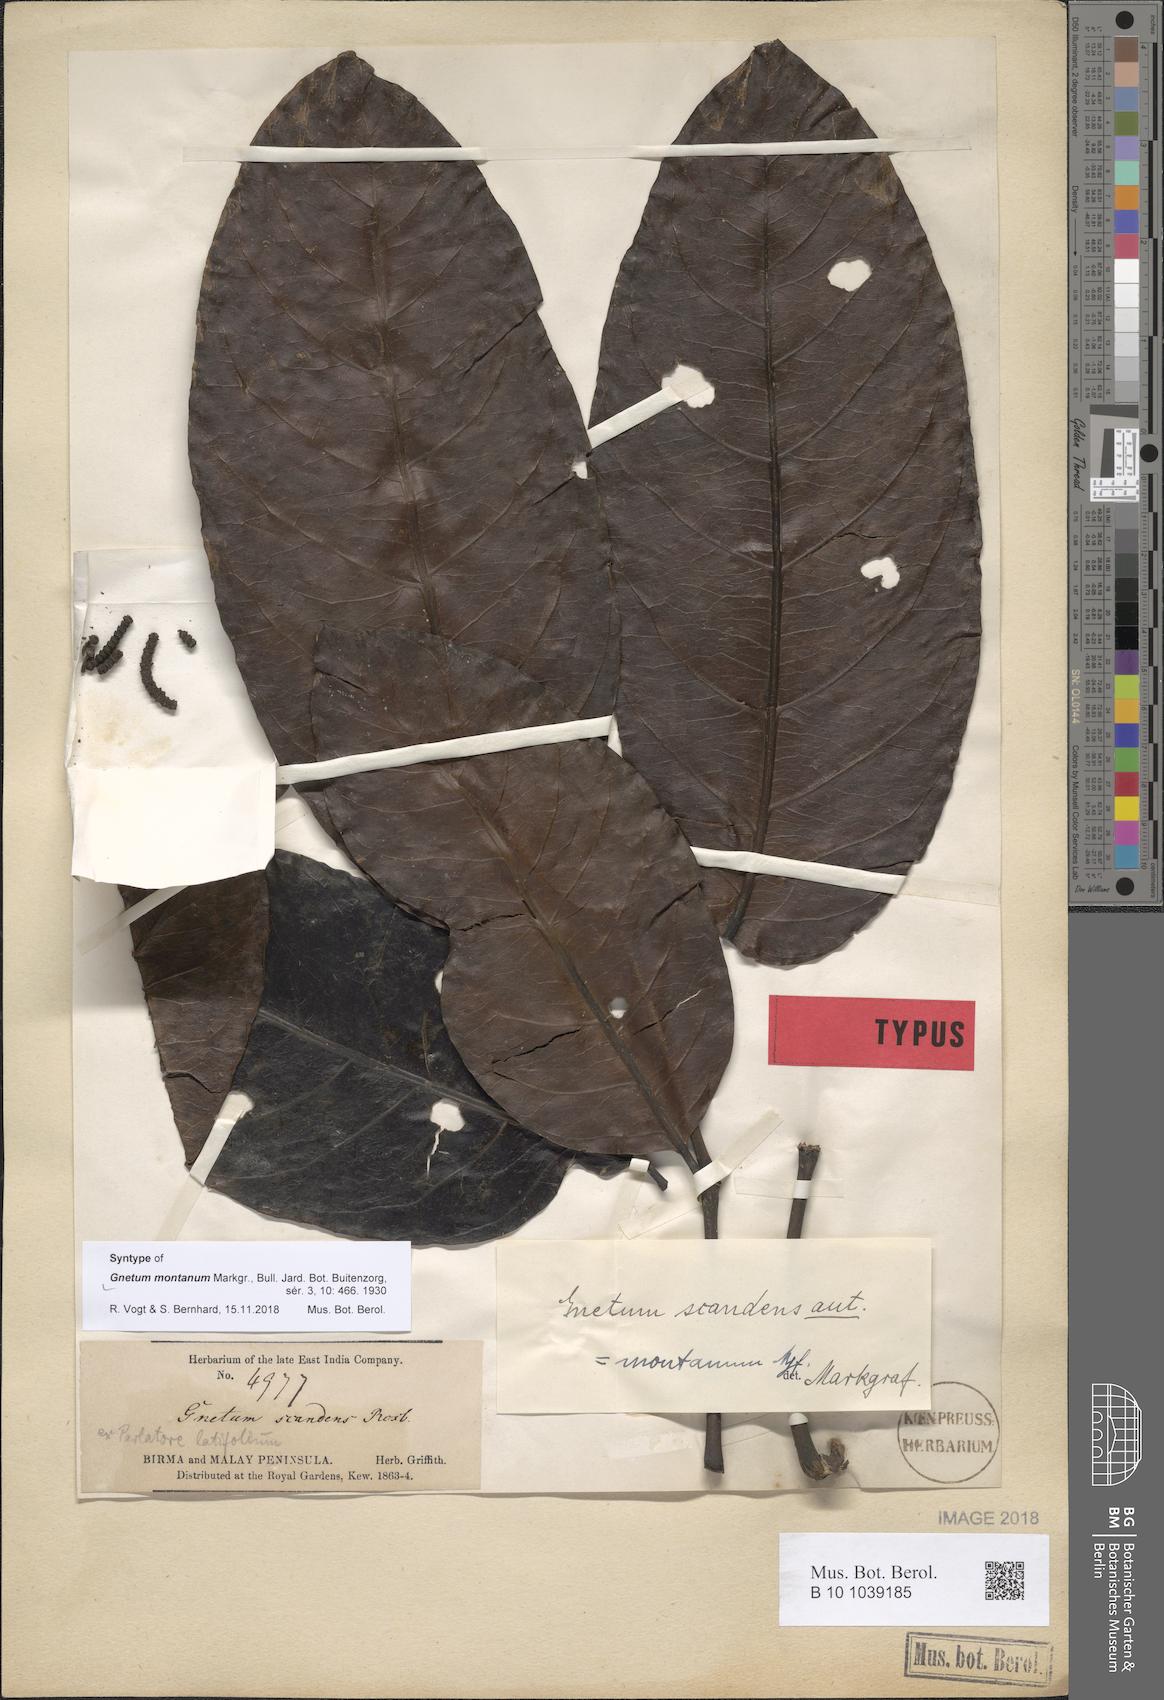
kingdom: Plantae
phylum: Tracheophyta
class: Gnetopsida
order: Gnetales
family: Gnetaceae
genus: Gnetum
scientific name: Gnetum montanum
